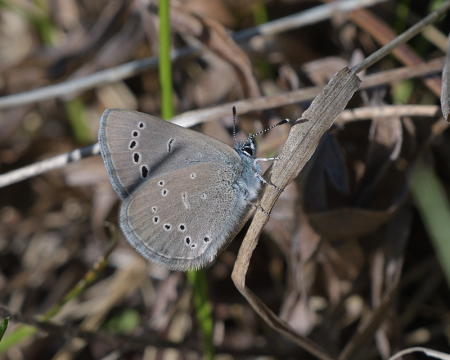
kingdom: Animalia
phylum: Arthropoda
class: Insecta
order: Lepidoptera
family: Lycaenidae
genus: Glaucopsyche
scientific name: Glaucopsyche lygdamus
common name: Silvery Blue
